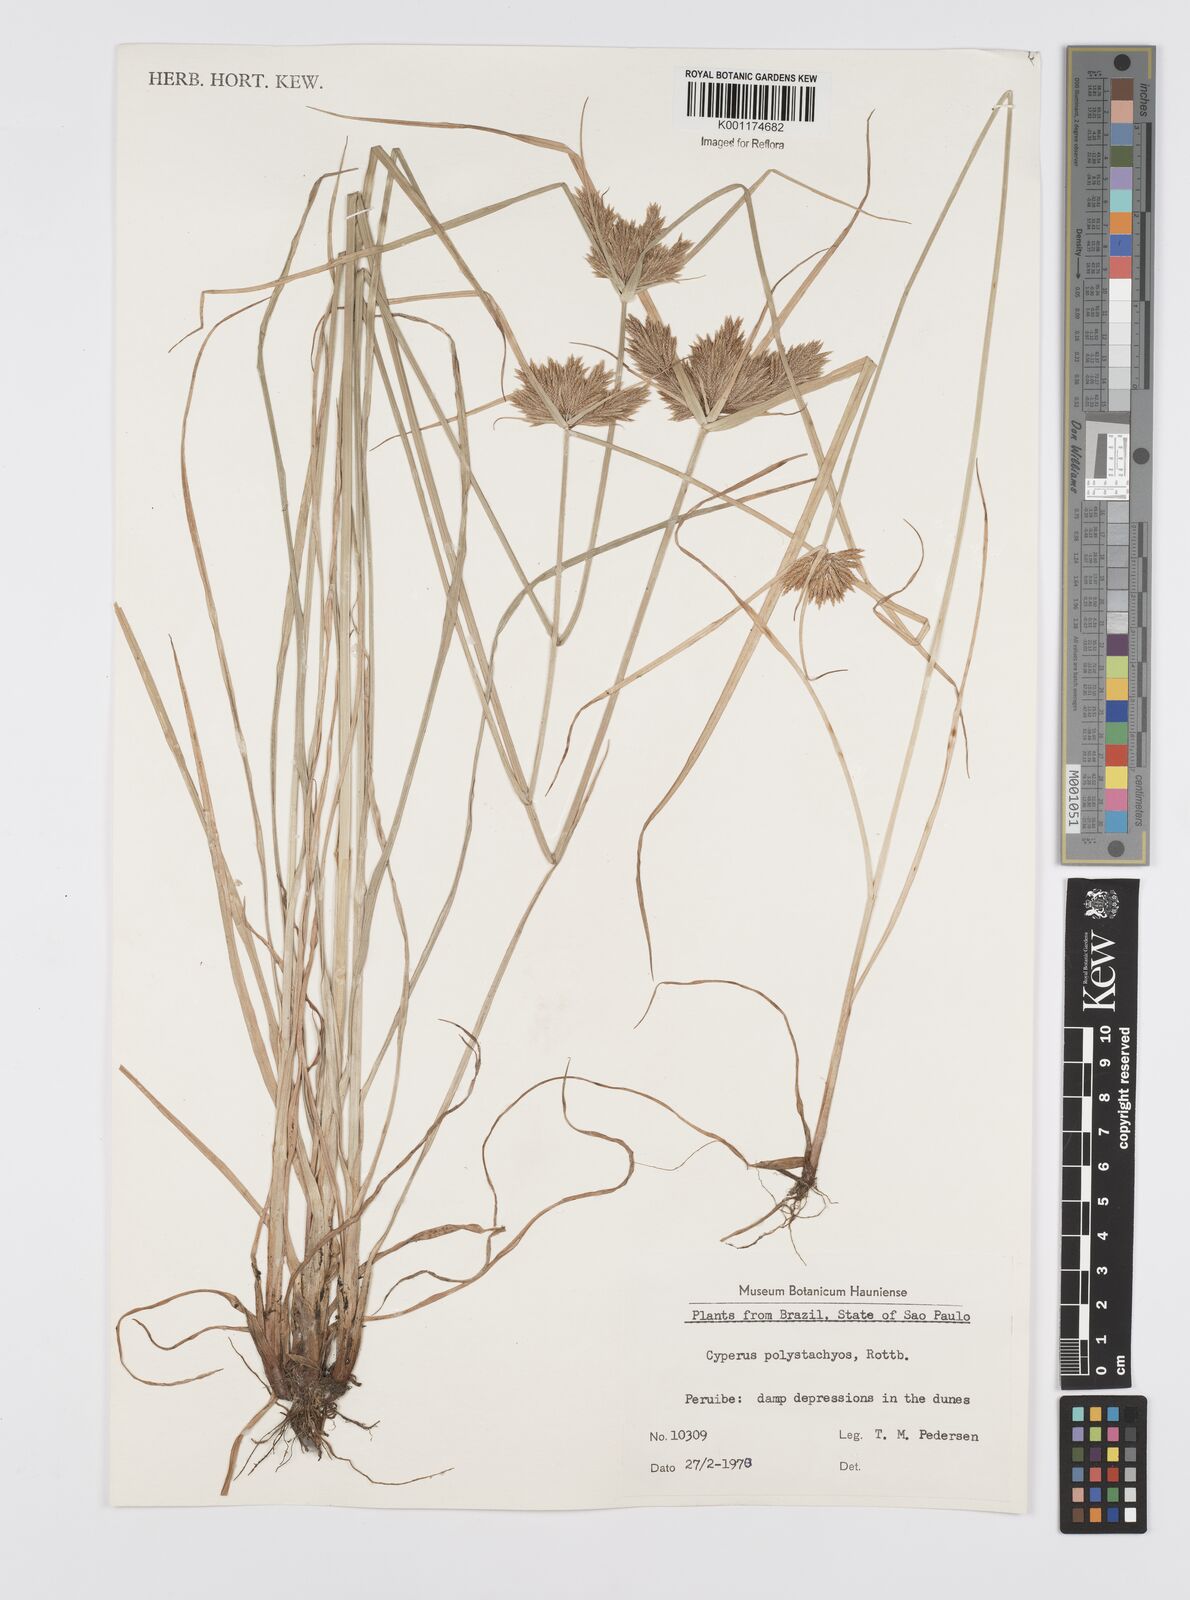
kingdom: Plantae
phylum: Tracheophyta
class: Liliopsida
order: Poales
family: Cyperaceae
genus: Cyperus
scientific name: Cyperus polystachyos
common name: Bunchy flat sedge
